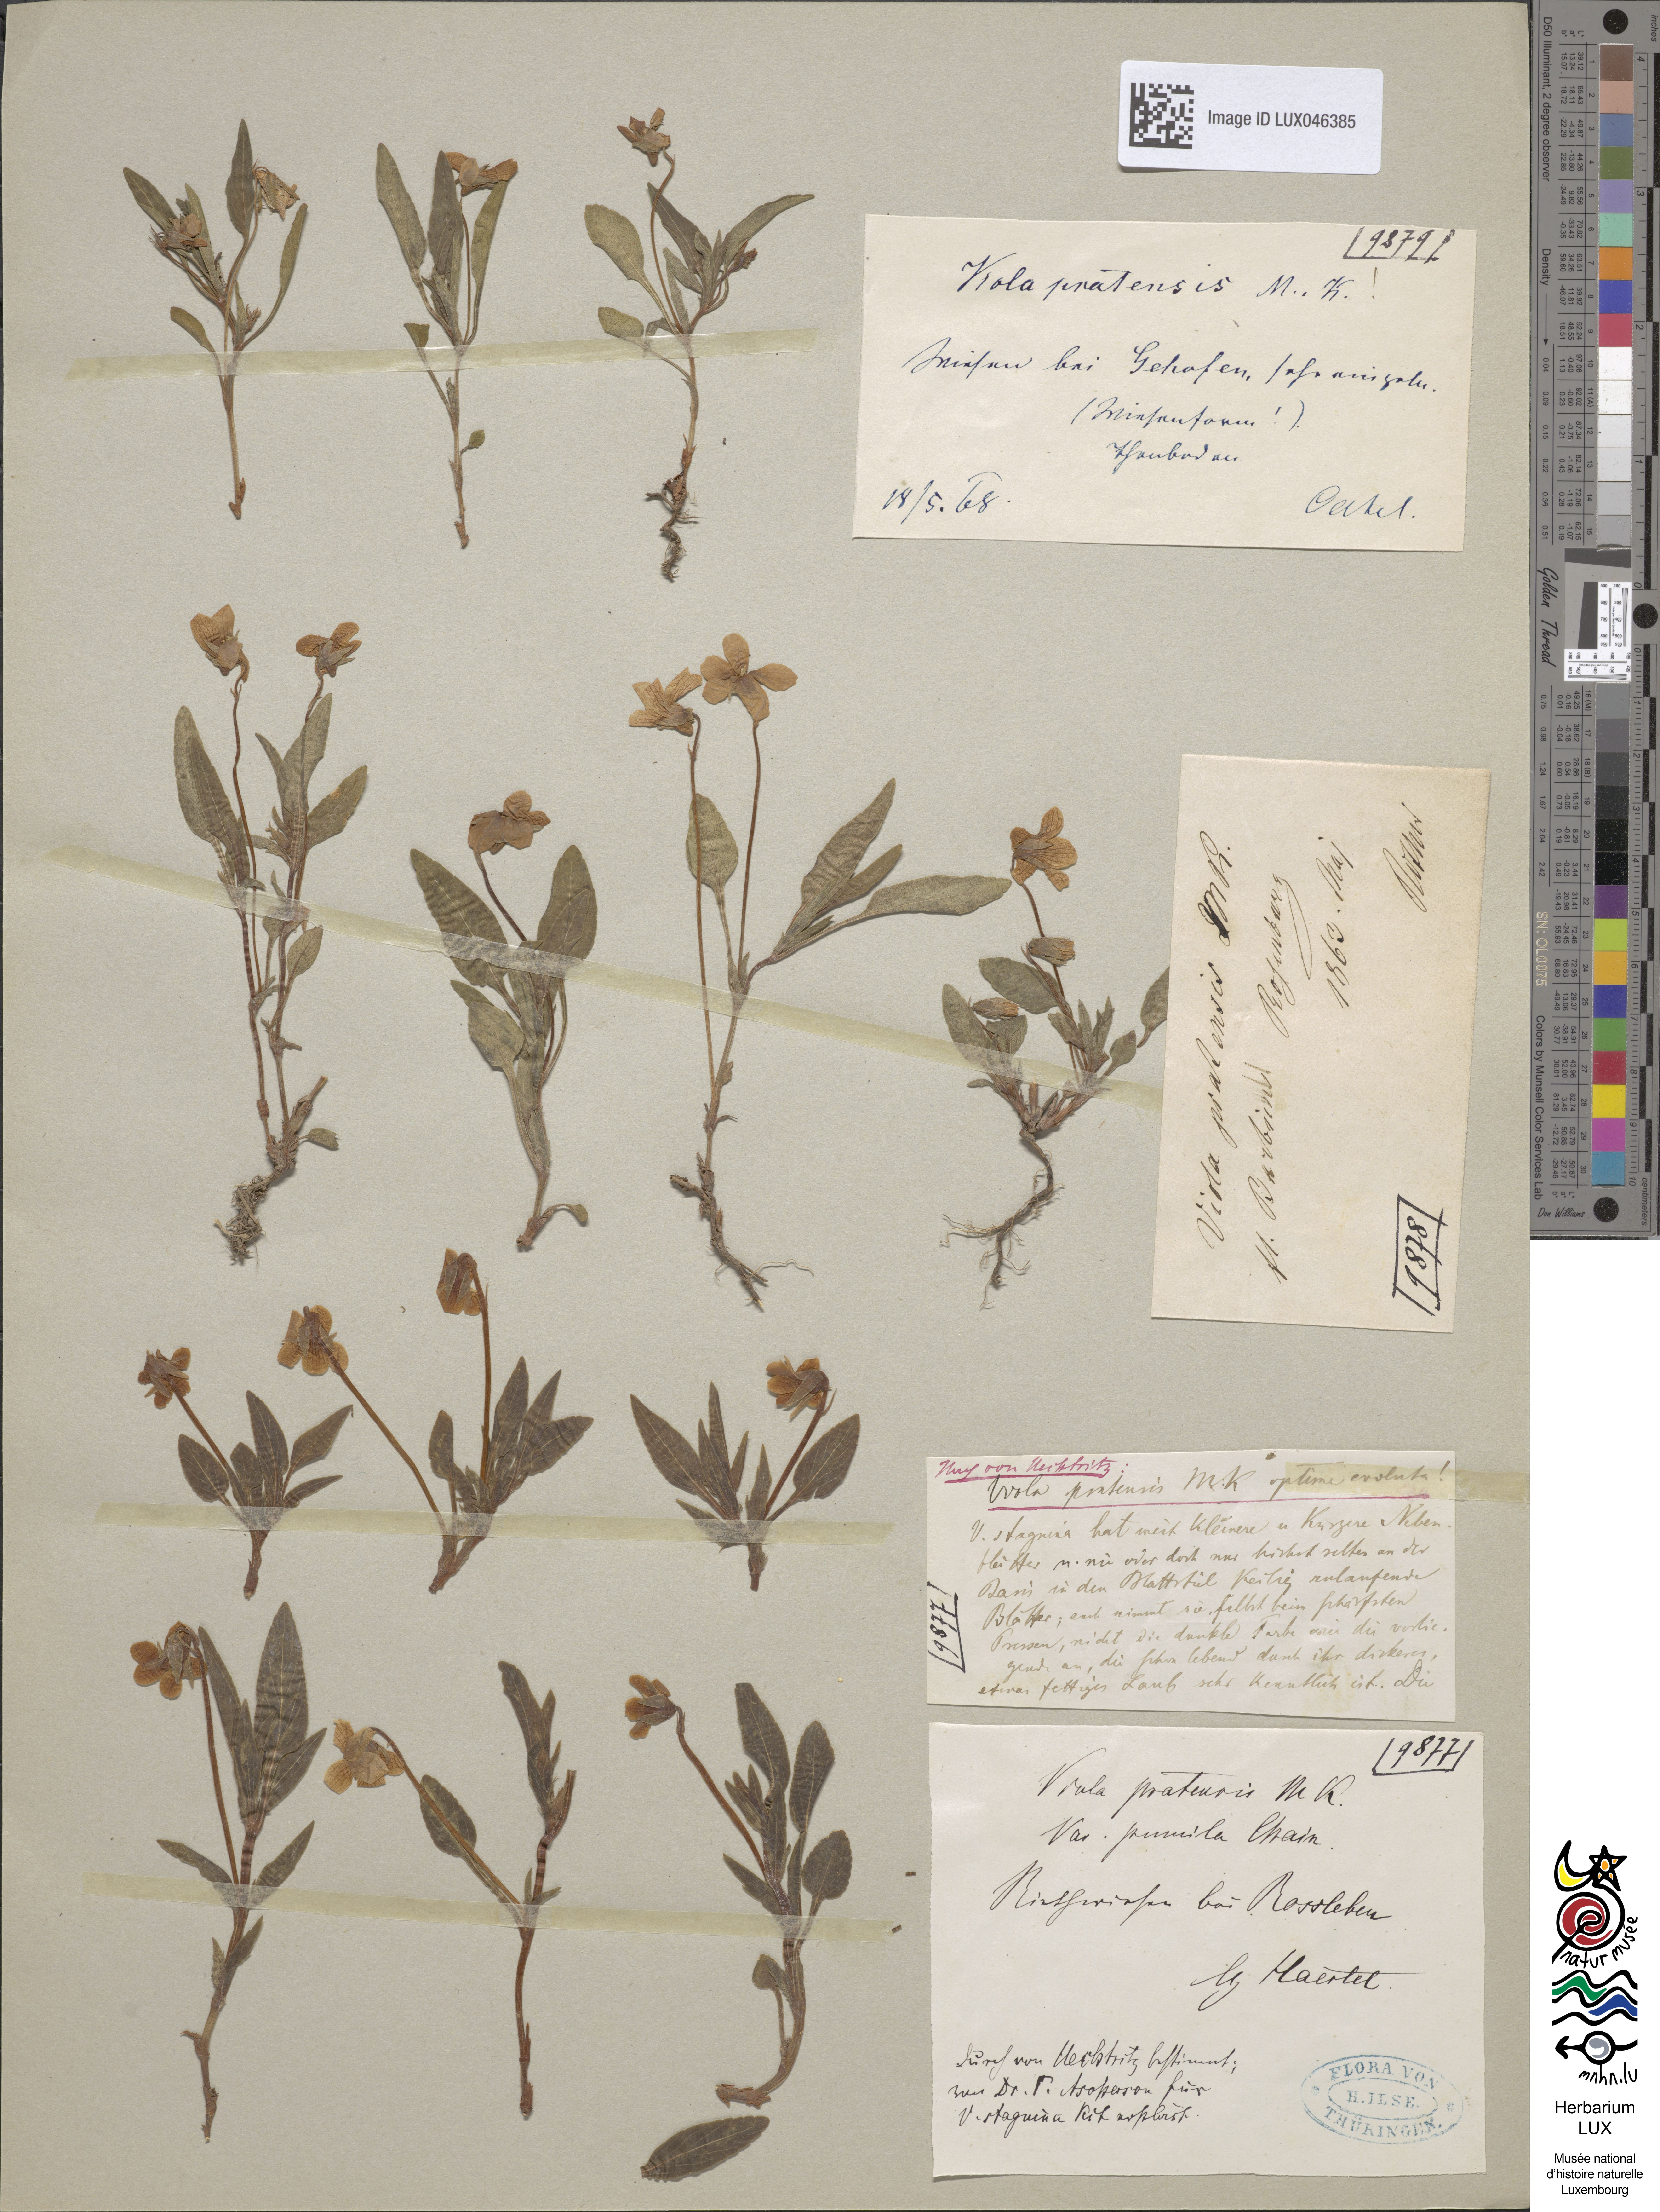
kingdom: Plantae
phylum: Tracheophyta
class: Magnoliopsida
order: Malpighiales
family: Violaceae
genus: Viola
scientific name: Viola pumila
